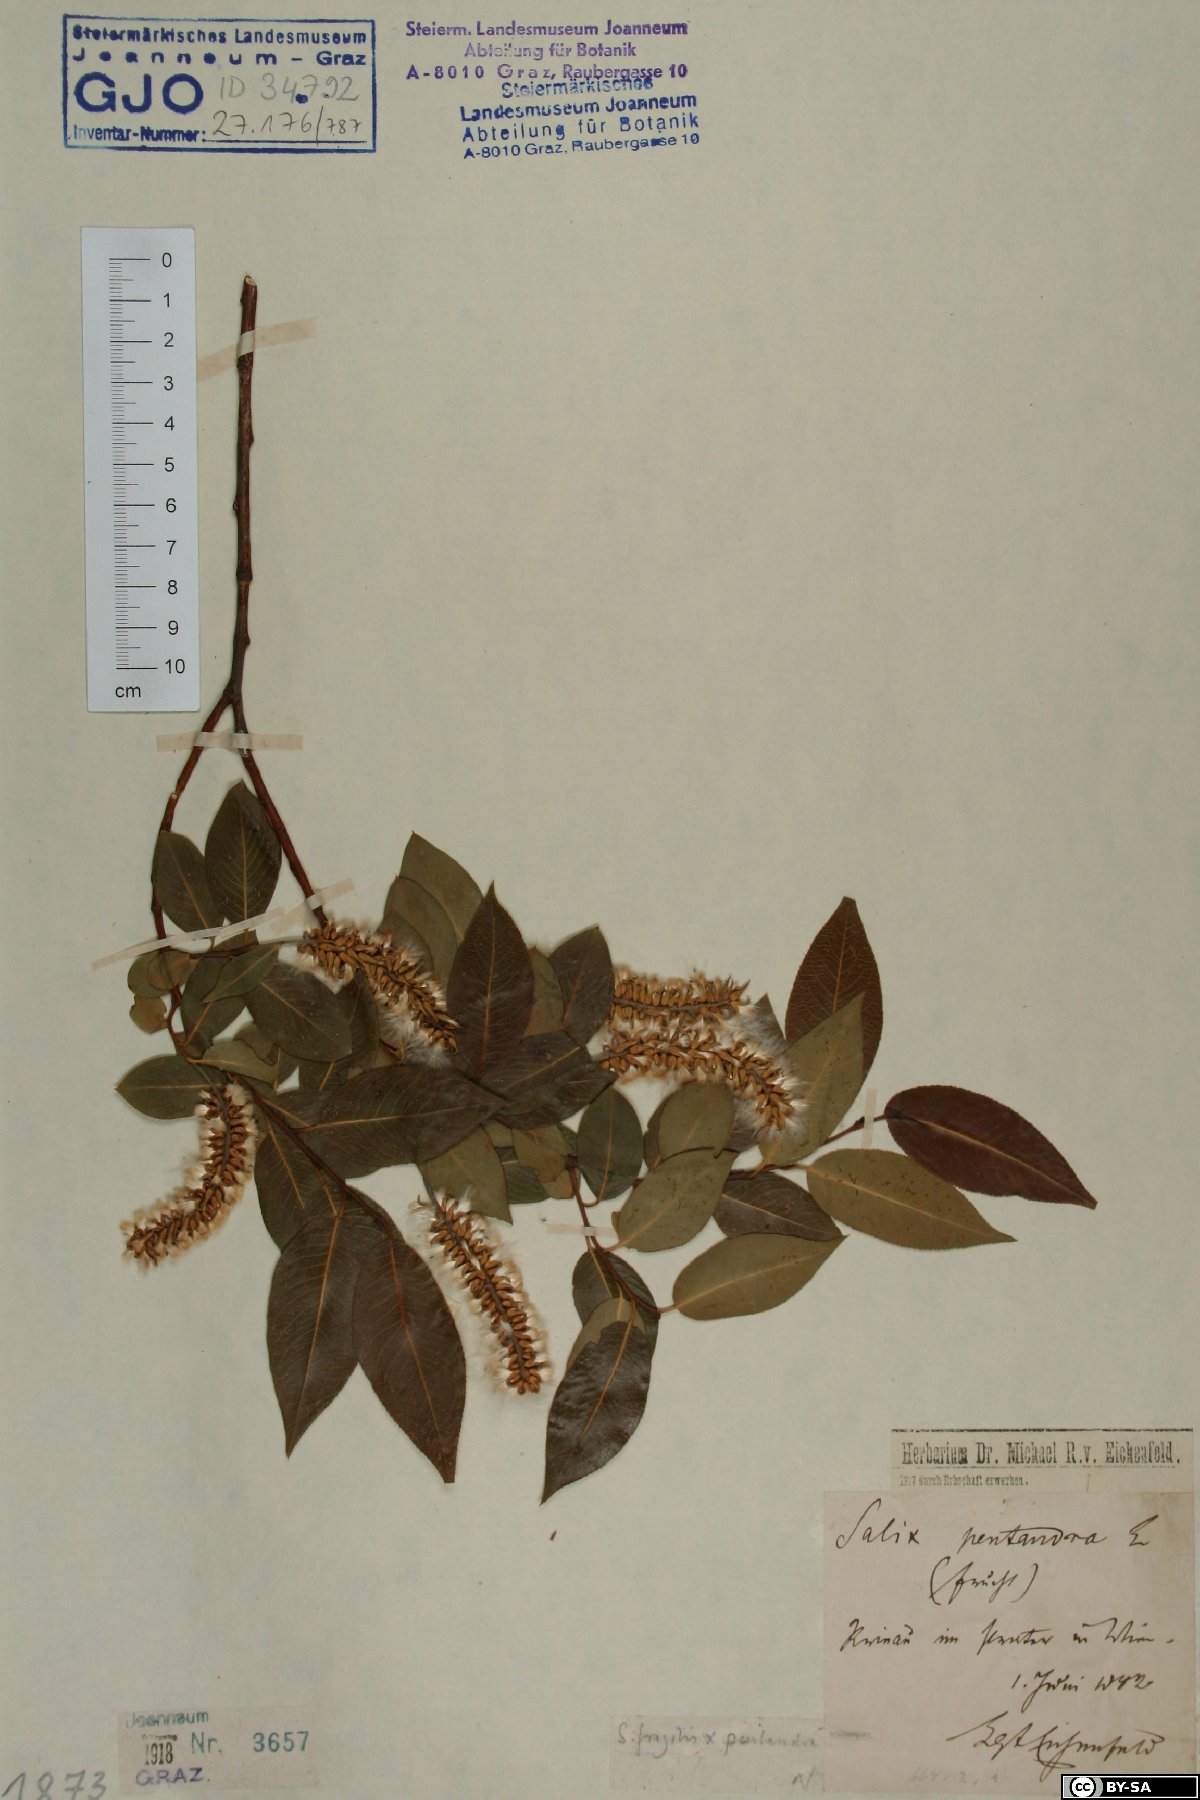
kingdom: Plantae
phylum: Tracheophyta
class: Magnoliopsida
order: Malpighiales
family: Salicaceae
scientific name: Salicaceae
